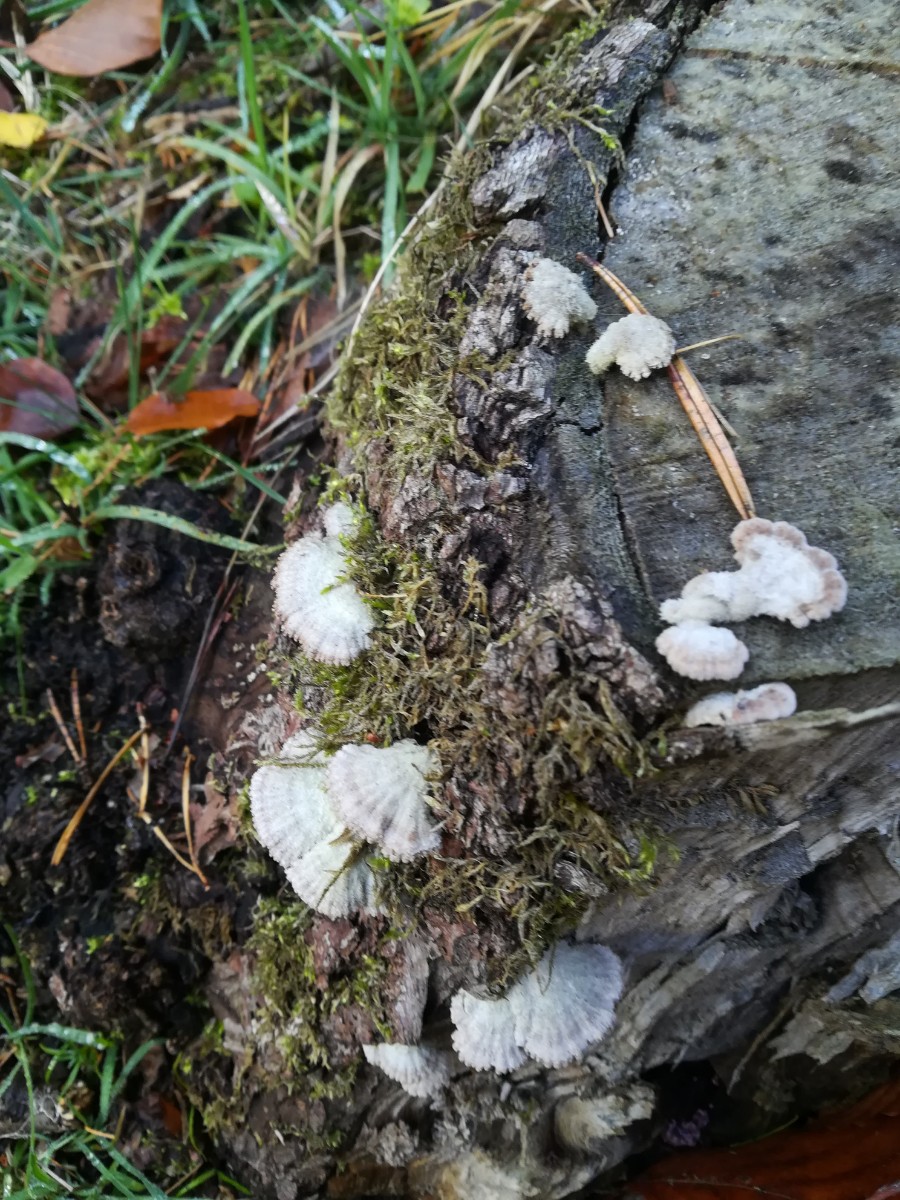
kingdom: Fungi
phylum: Basidiomycota
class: Agaricomycetes
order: Agaricales
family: Schizophyllaceae
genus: Schizophyllum
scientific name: Schizophyllum commune
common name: kløvblad
